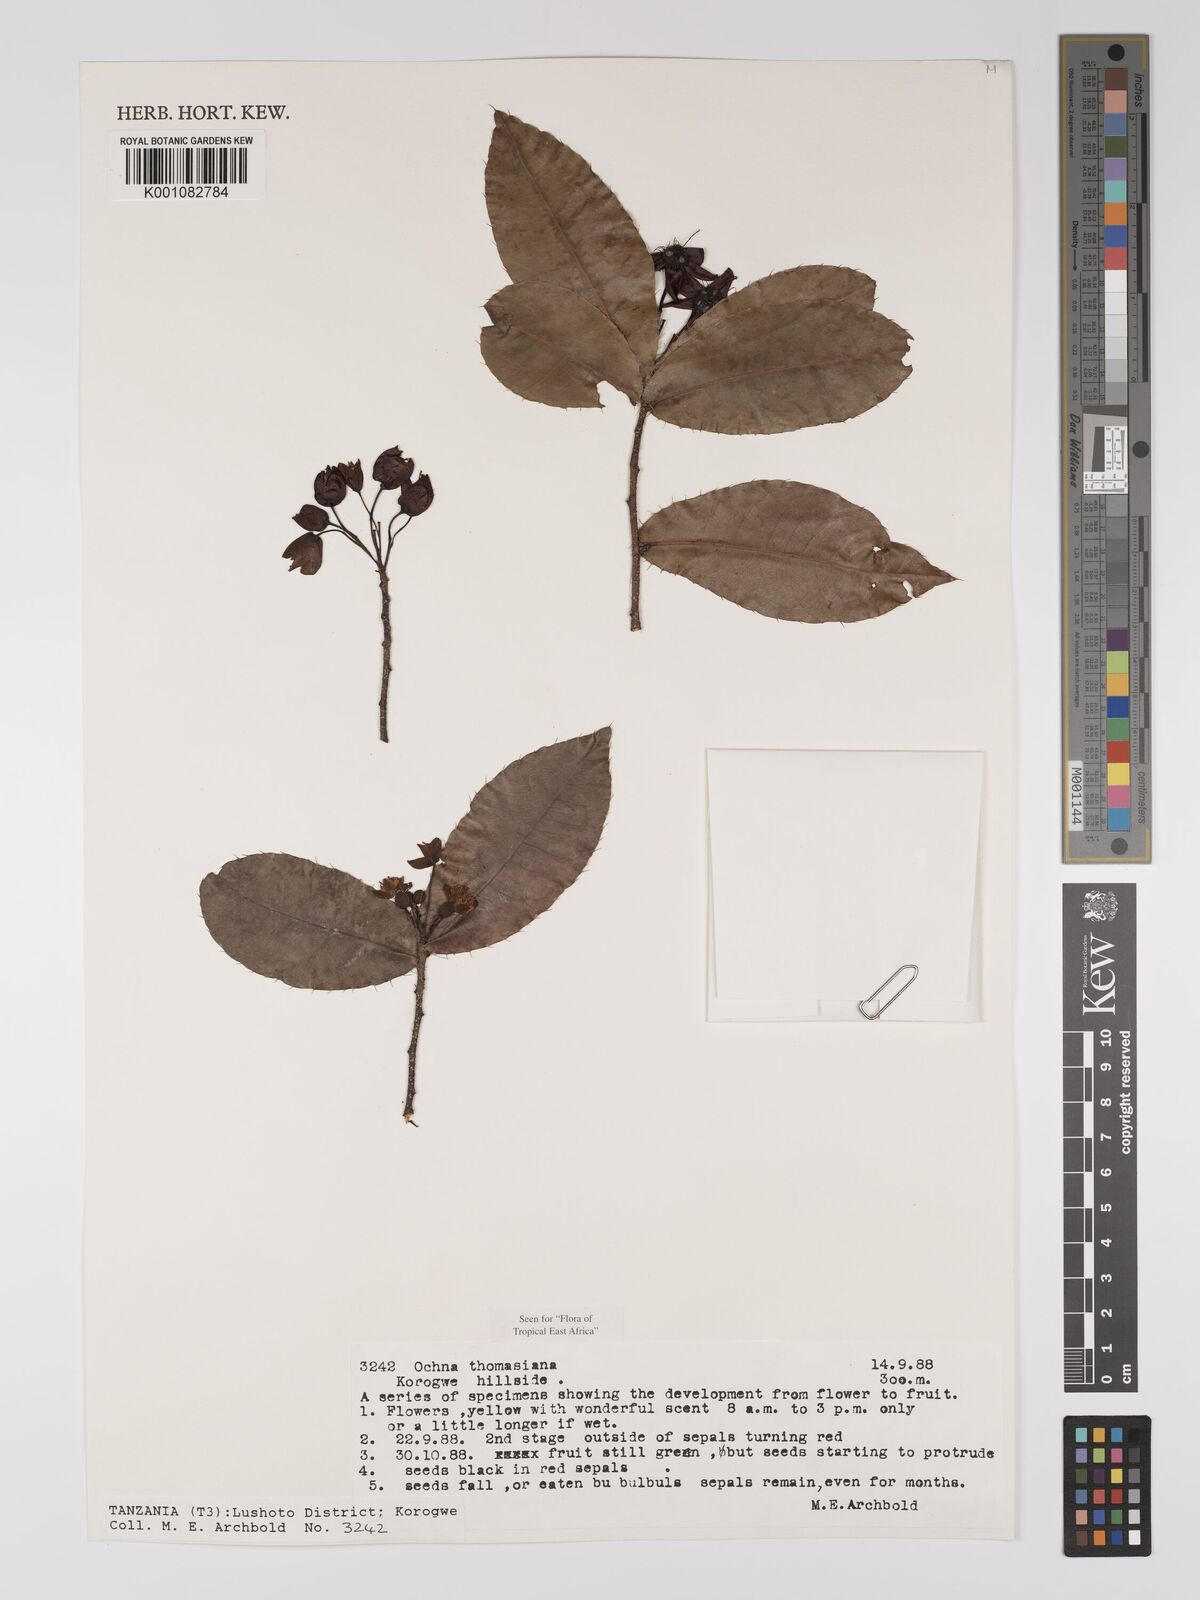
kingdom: Plantae
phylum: Tracheophyta
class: Magnoliopsida
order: Malpighiales
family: Ochnaceae
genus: Ochna
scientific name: Ochna thomasiana
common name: Thomas' bird's-eye bush
